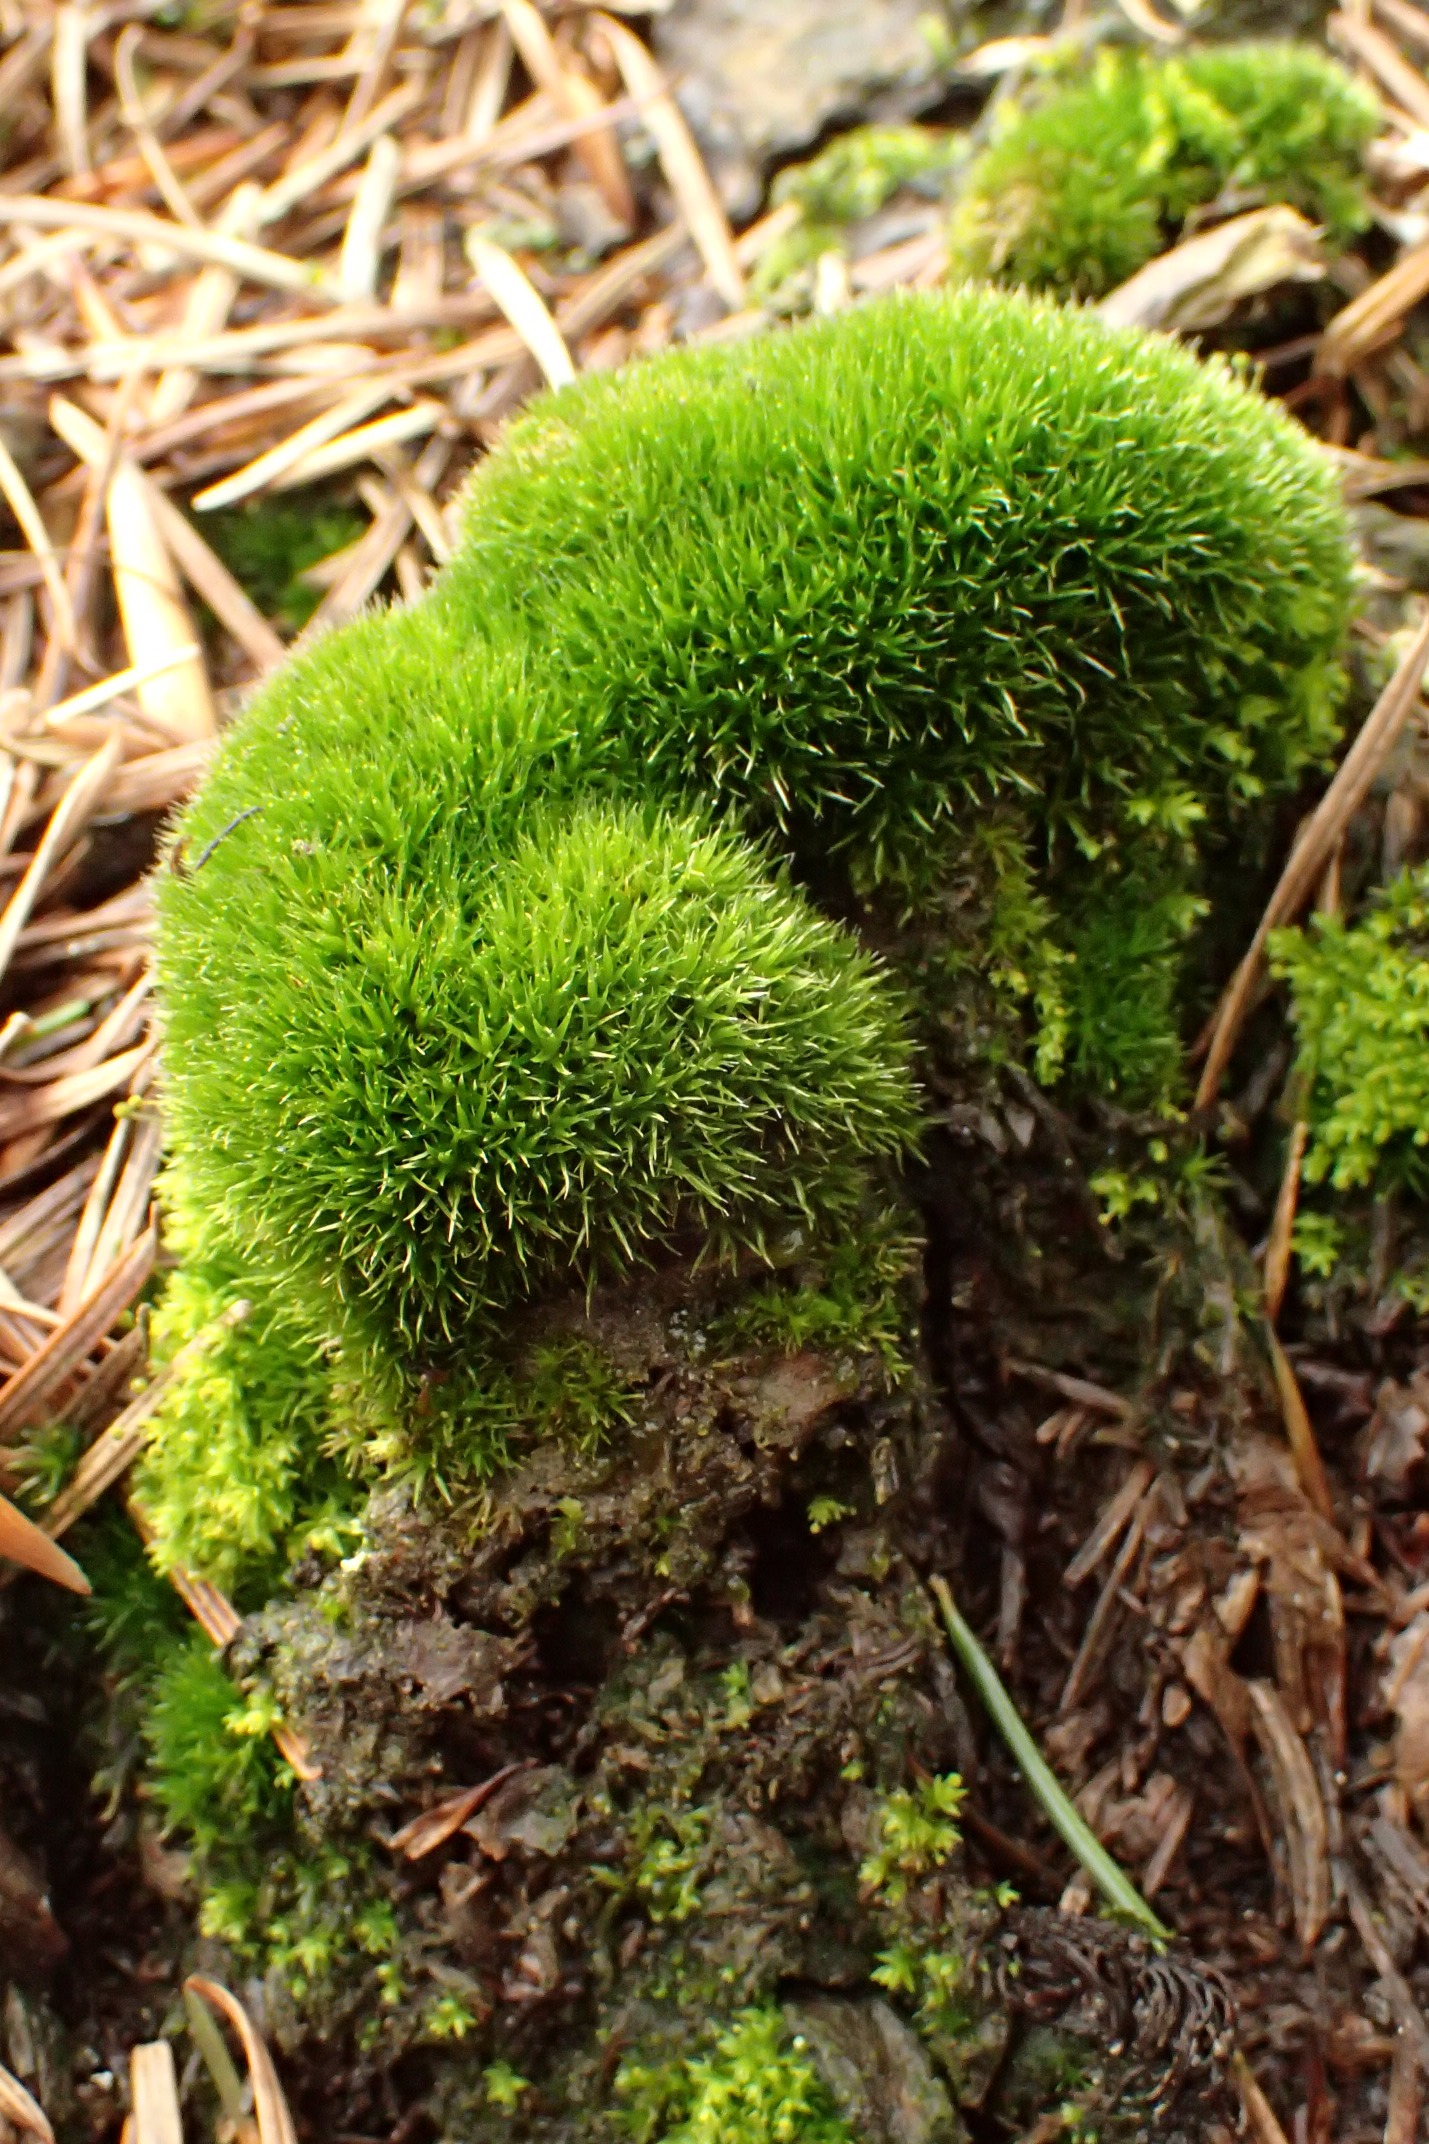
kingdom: Plantae
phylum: Bryophyta
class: Bryopsida
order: Dicranales
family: Leucobryaceae
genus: Campylopus
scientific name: Campylopus introflexus
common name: Stjerne-bredribbe
